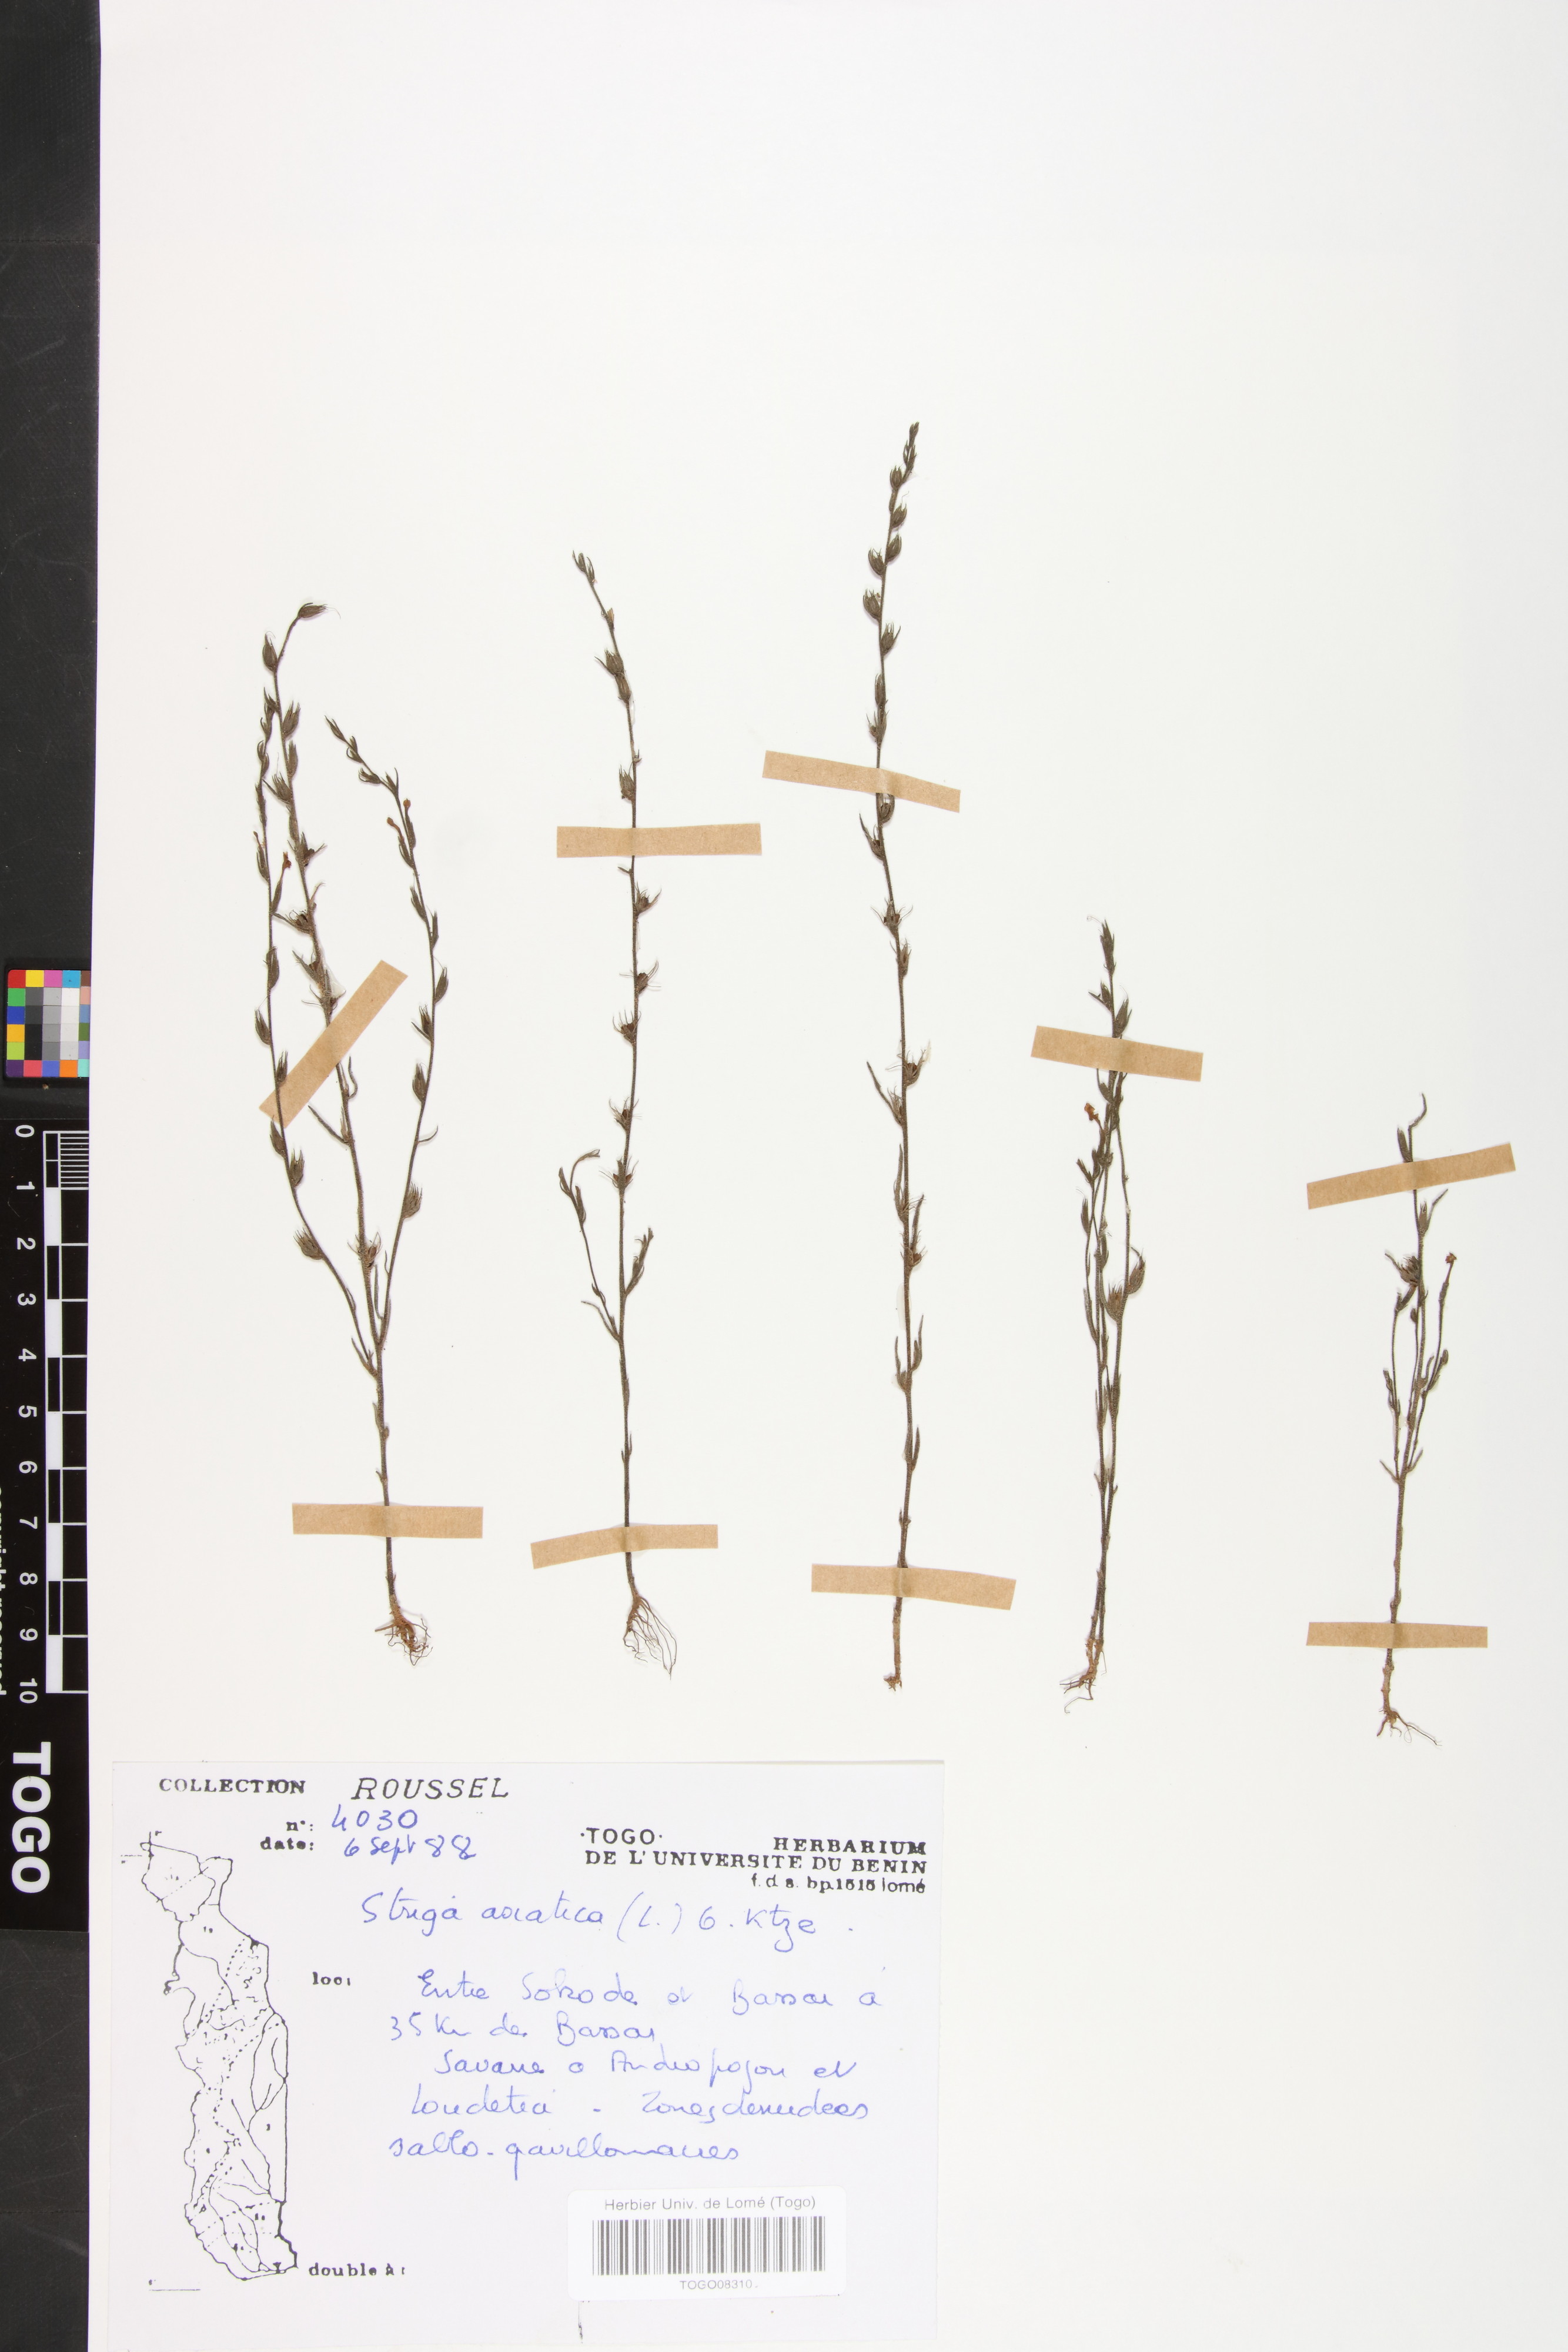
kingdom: Plantae
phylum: Tracheophyta
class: Magnoliopsida
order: Lamiales
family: Orobanchaceae
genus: Striga
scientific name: Striga asiatica
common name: Asiatic witchweed
